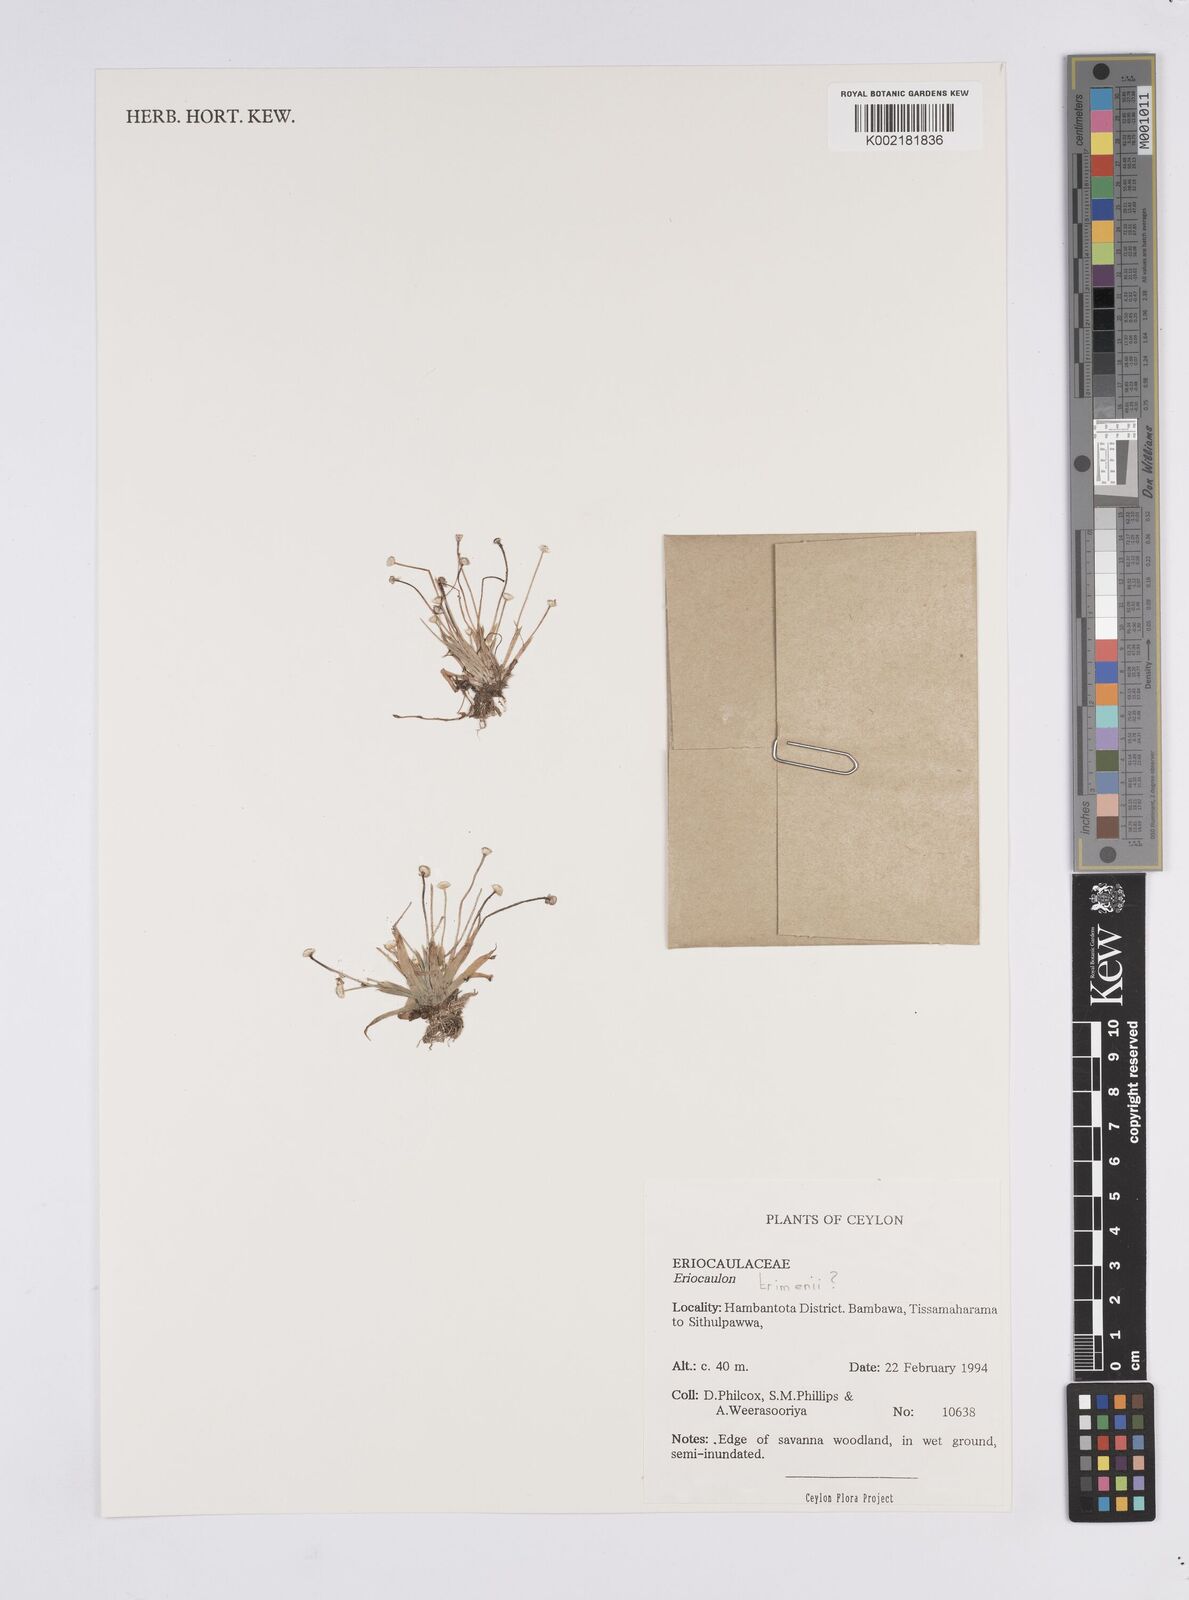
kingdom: Plantae
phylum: Tracheophyta
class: Liliopsida
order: Poales
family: Eriocaulaceae
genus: Eriocaulon
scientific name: Eriocaulon minimum
